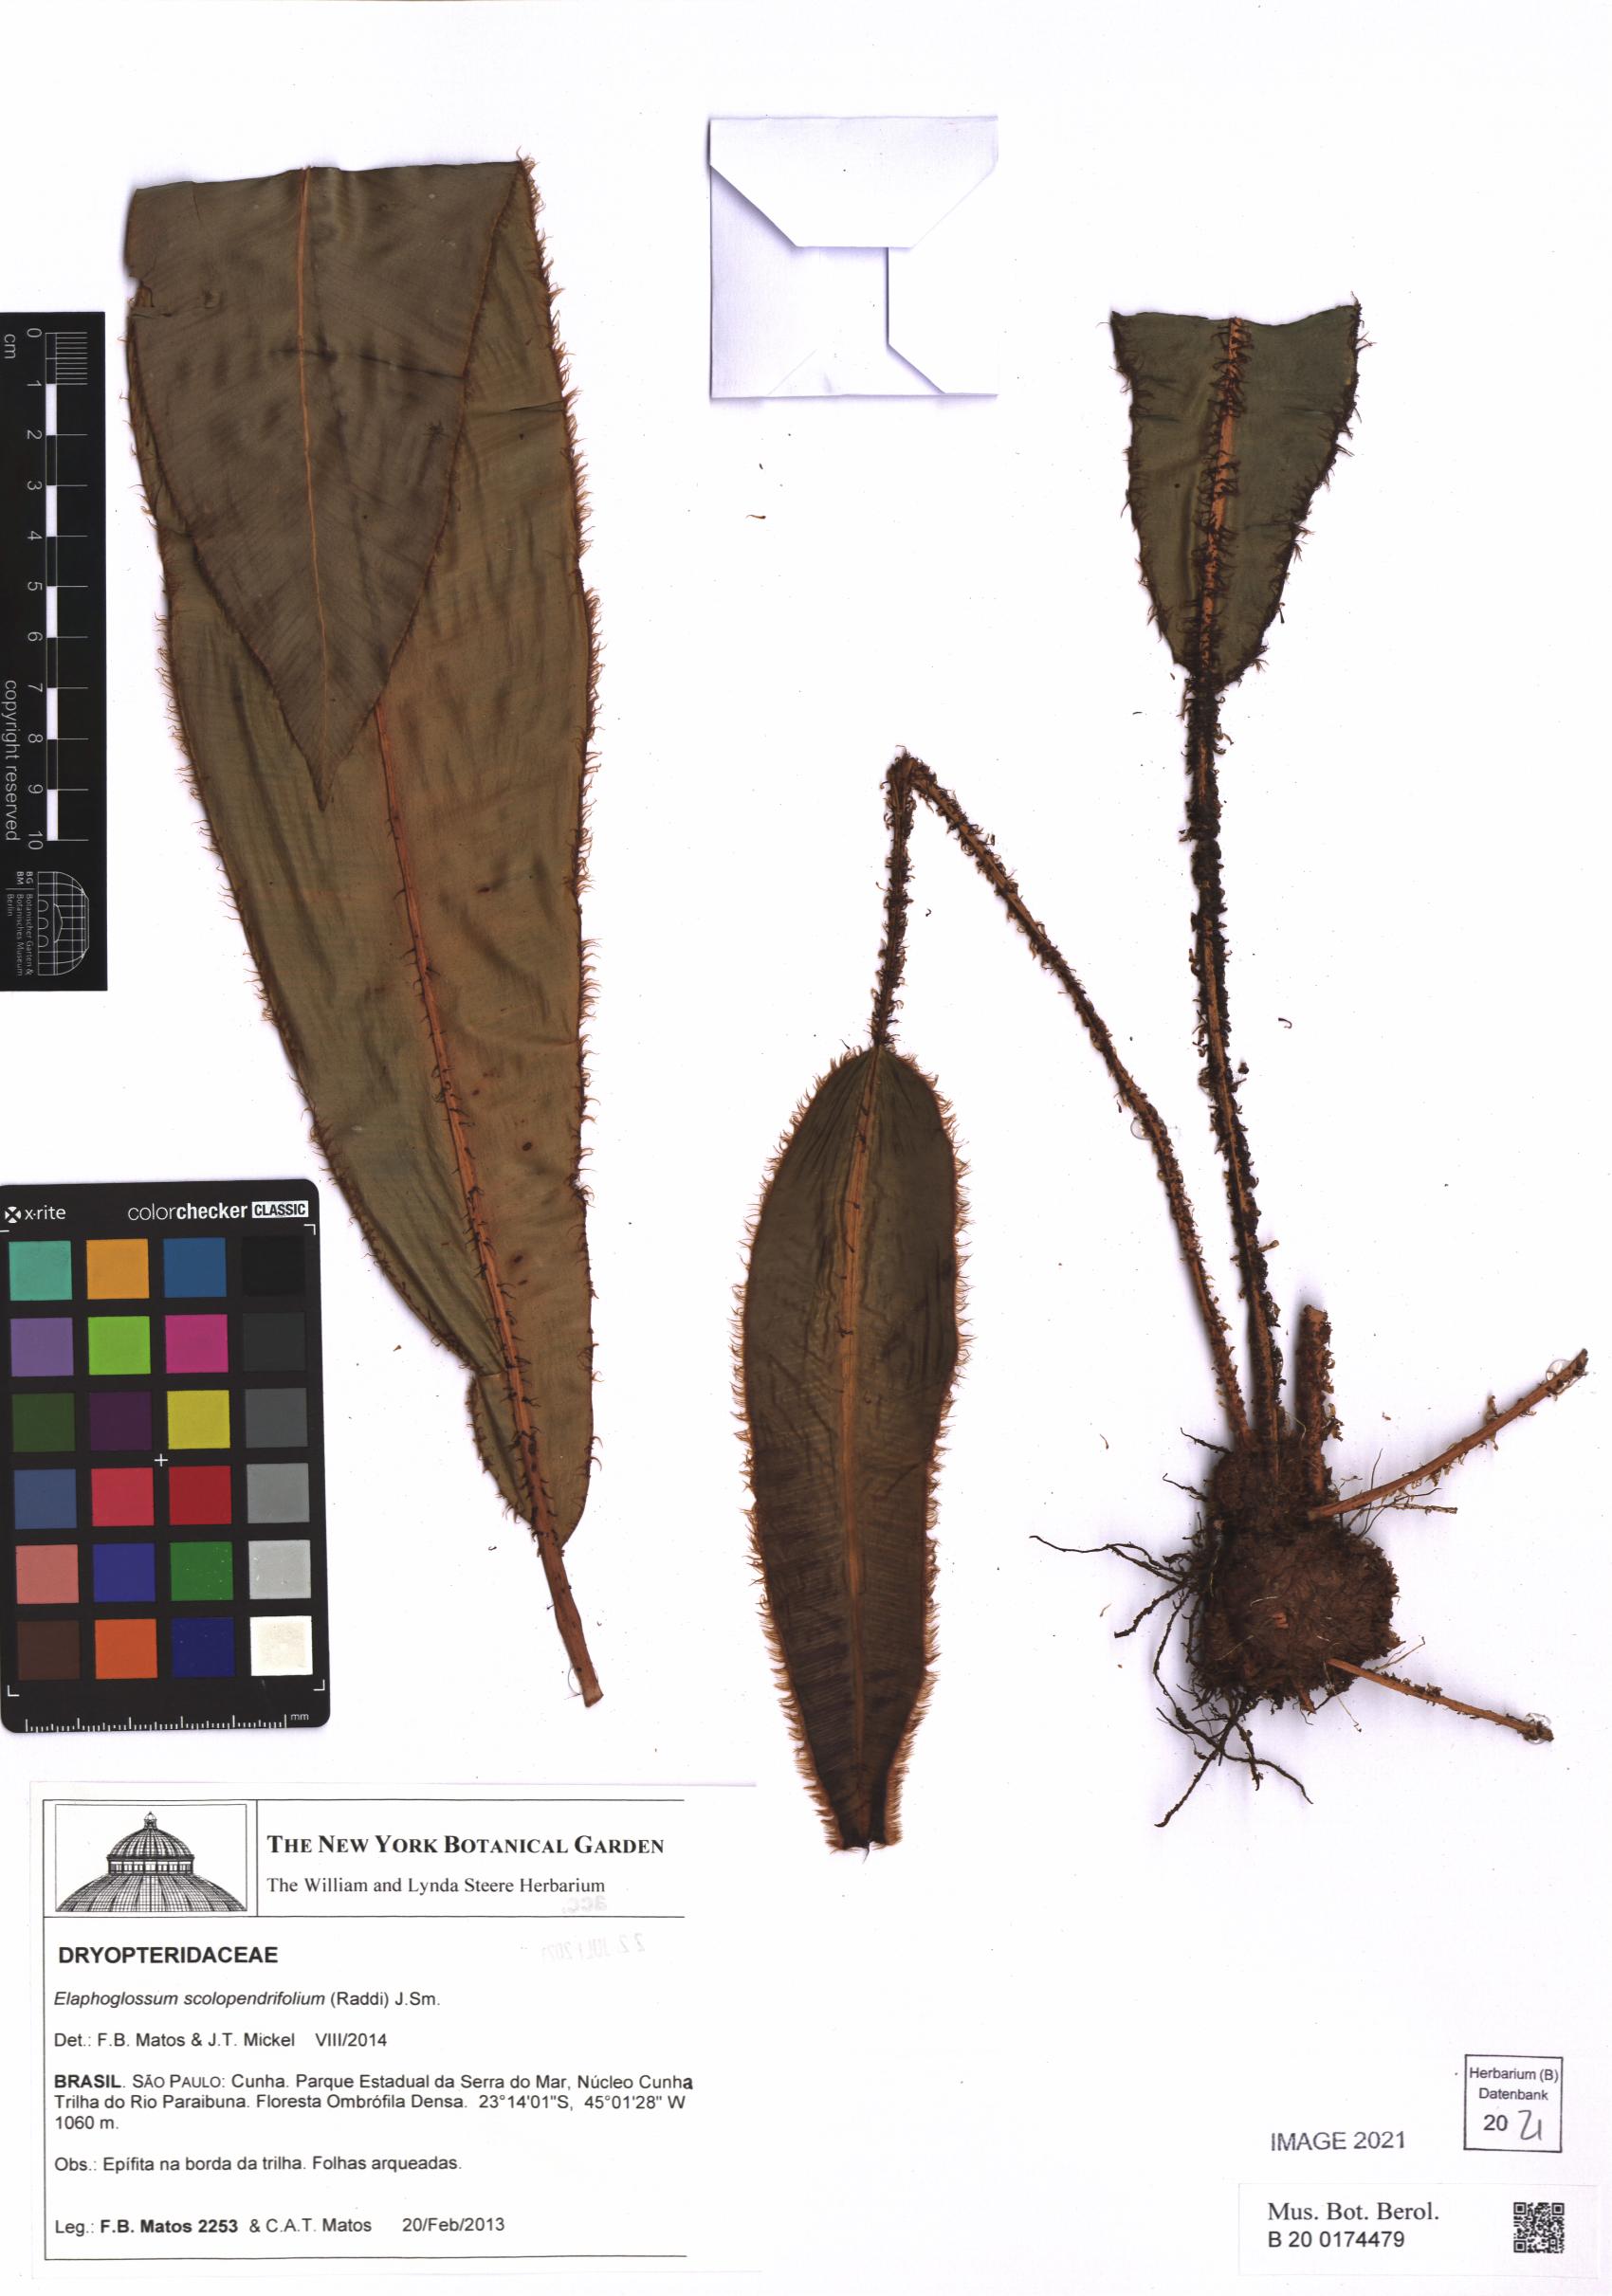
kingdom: Plantae
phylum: Tracheophyta
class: Polypodiopsida
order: Polypodiales
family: Dryopteridaceae
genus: Elaphoglossum
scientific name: Elaphoglossum scolopendrifolium
